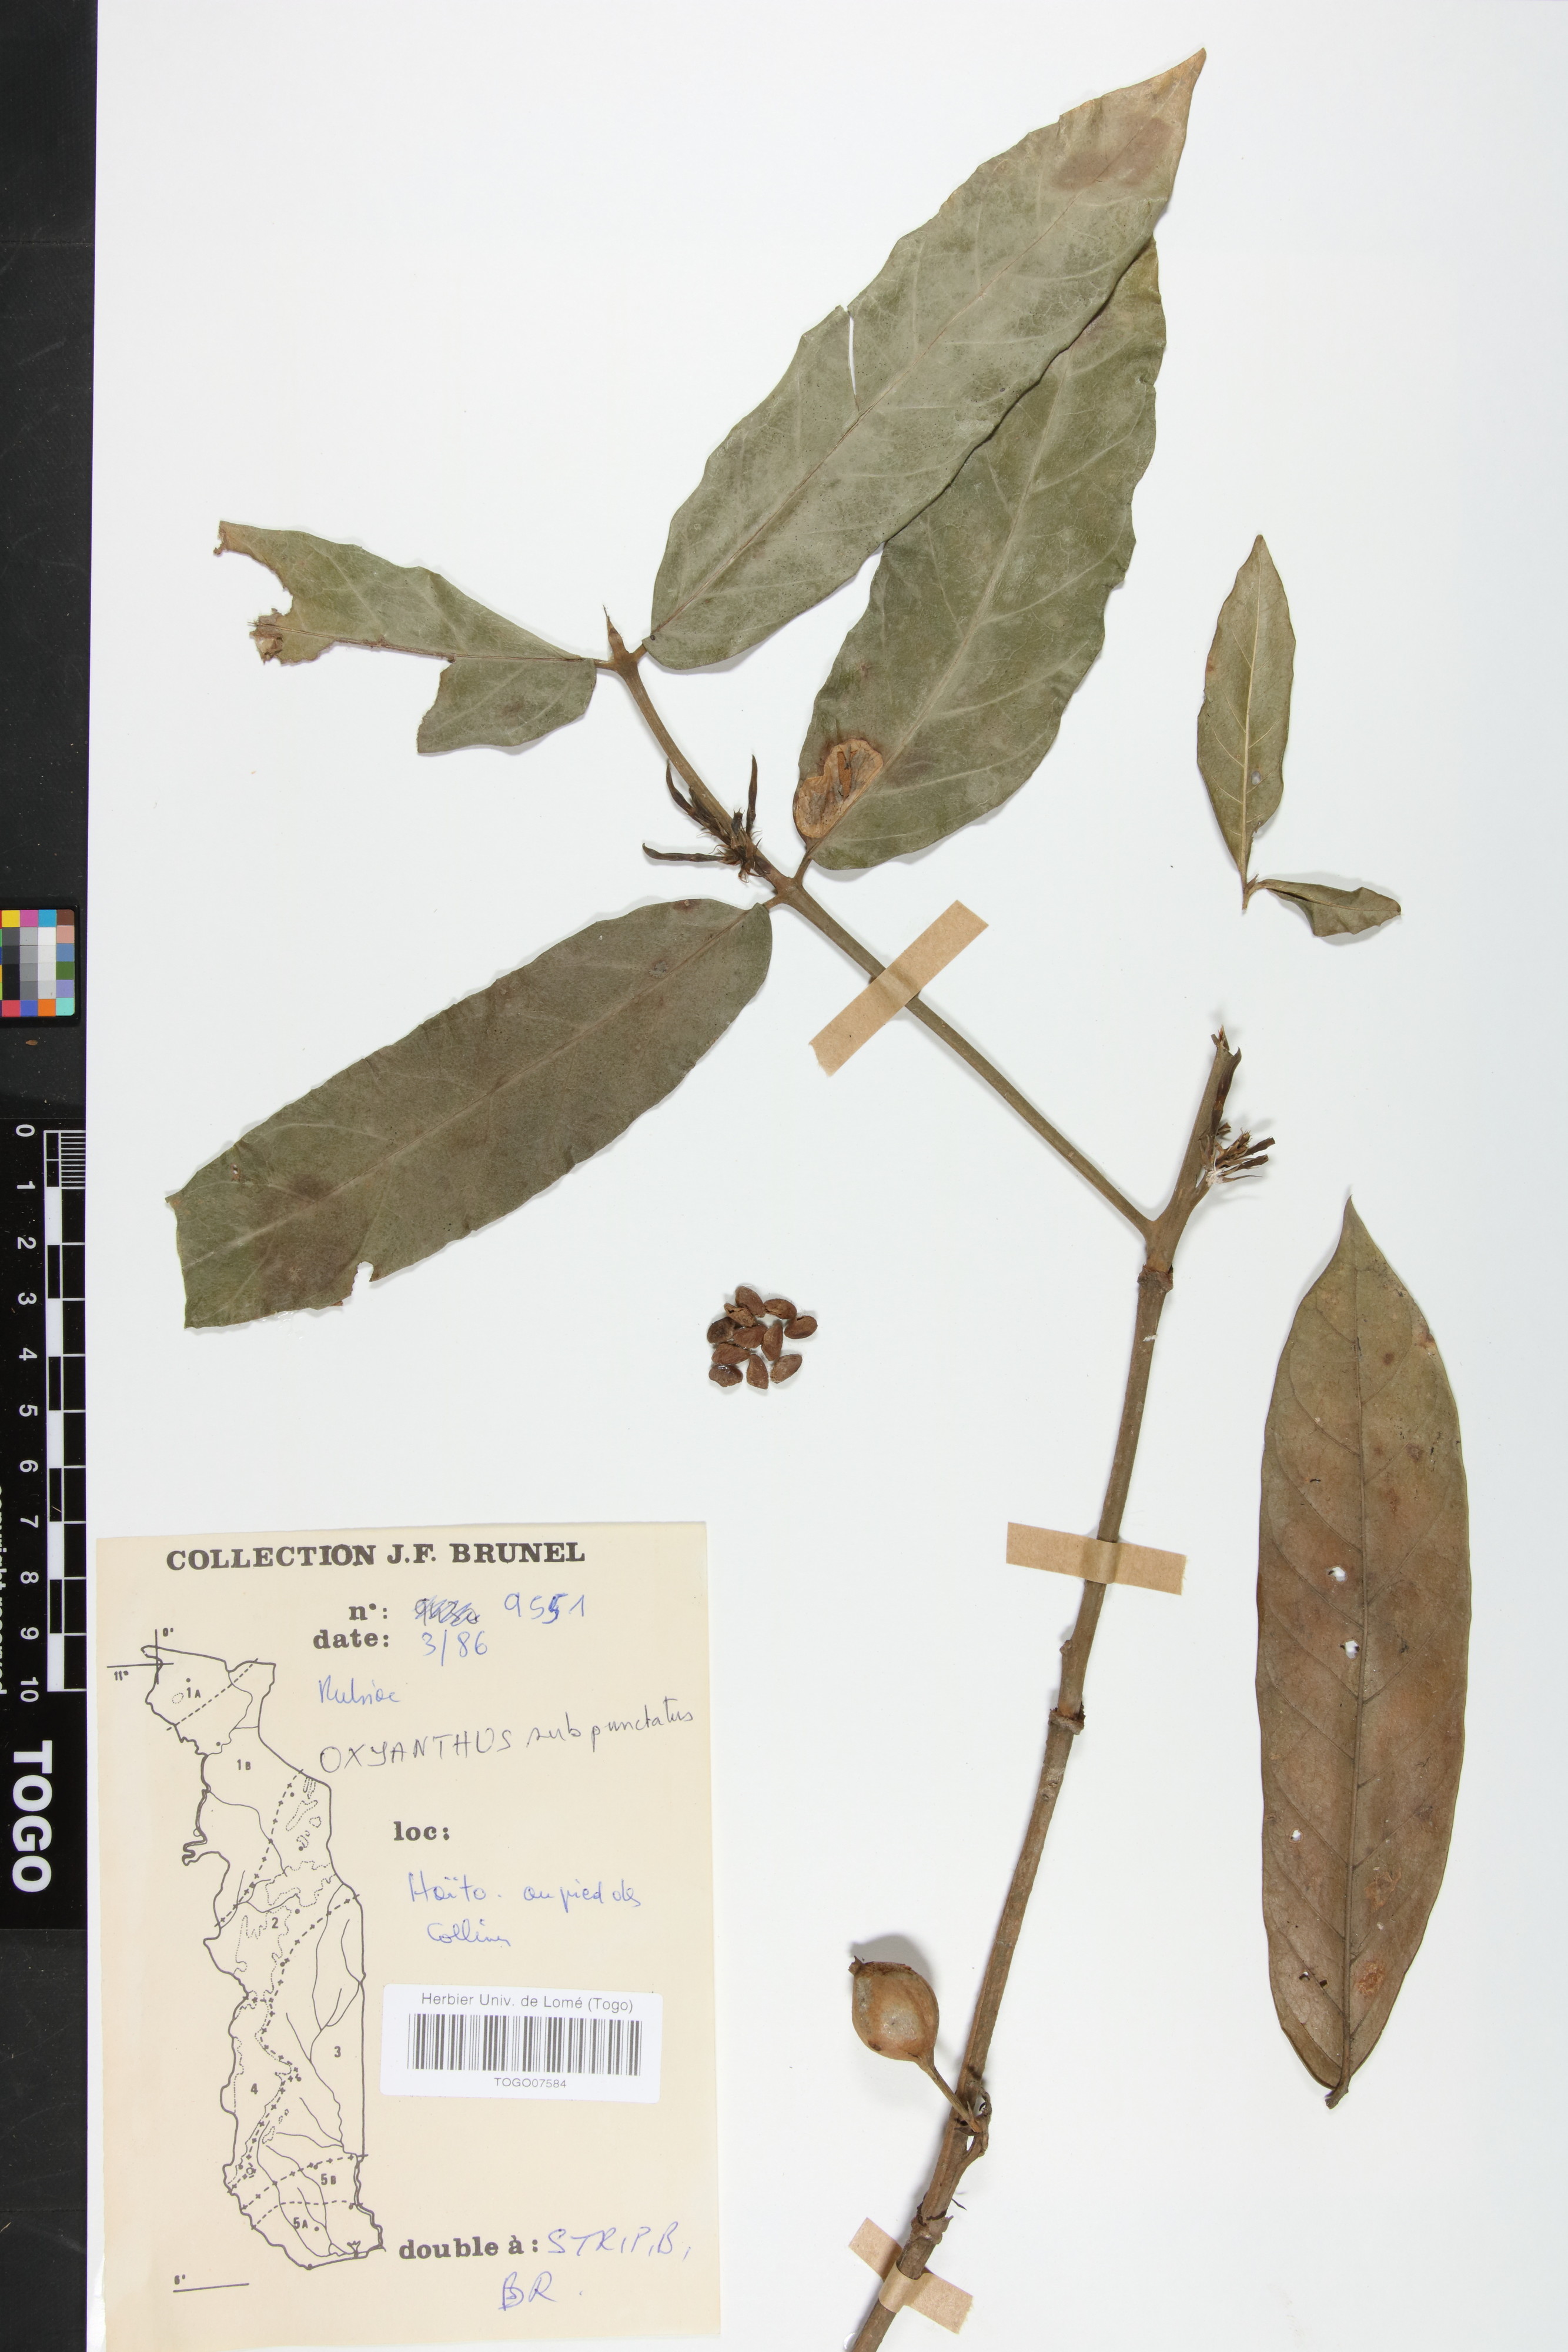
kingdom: Plantae
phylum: Tracheophyta
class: Magnoliopsida
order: Gentianales
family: Rubiaceae
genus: Oxyanthus
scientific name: Oxyanthus subpunctatus
